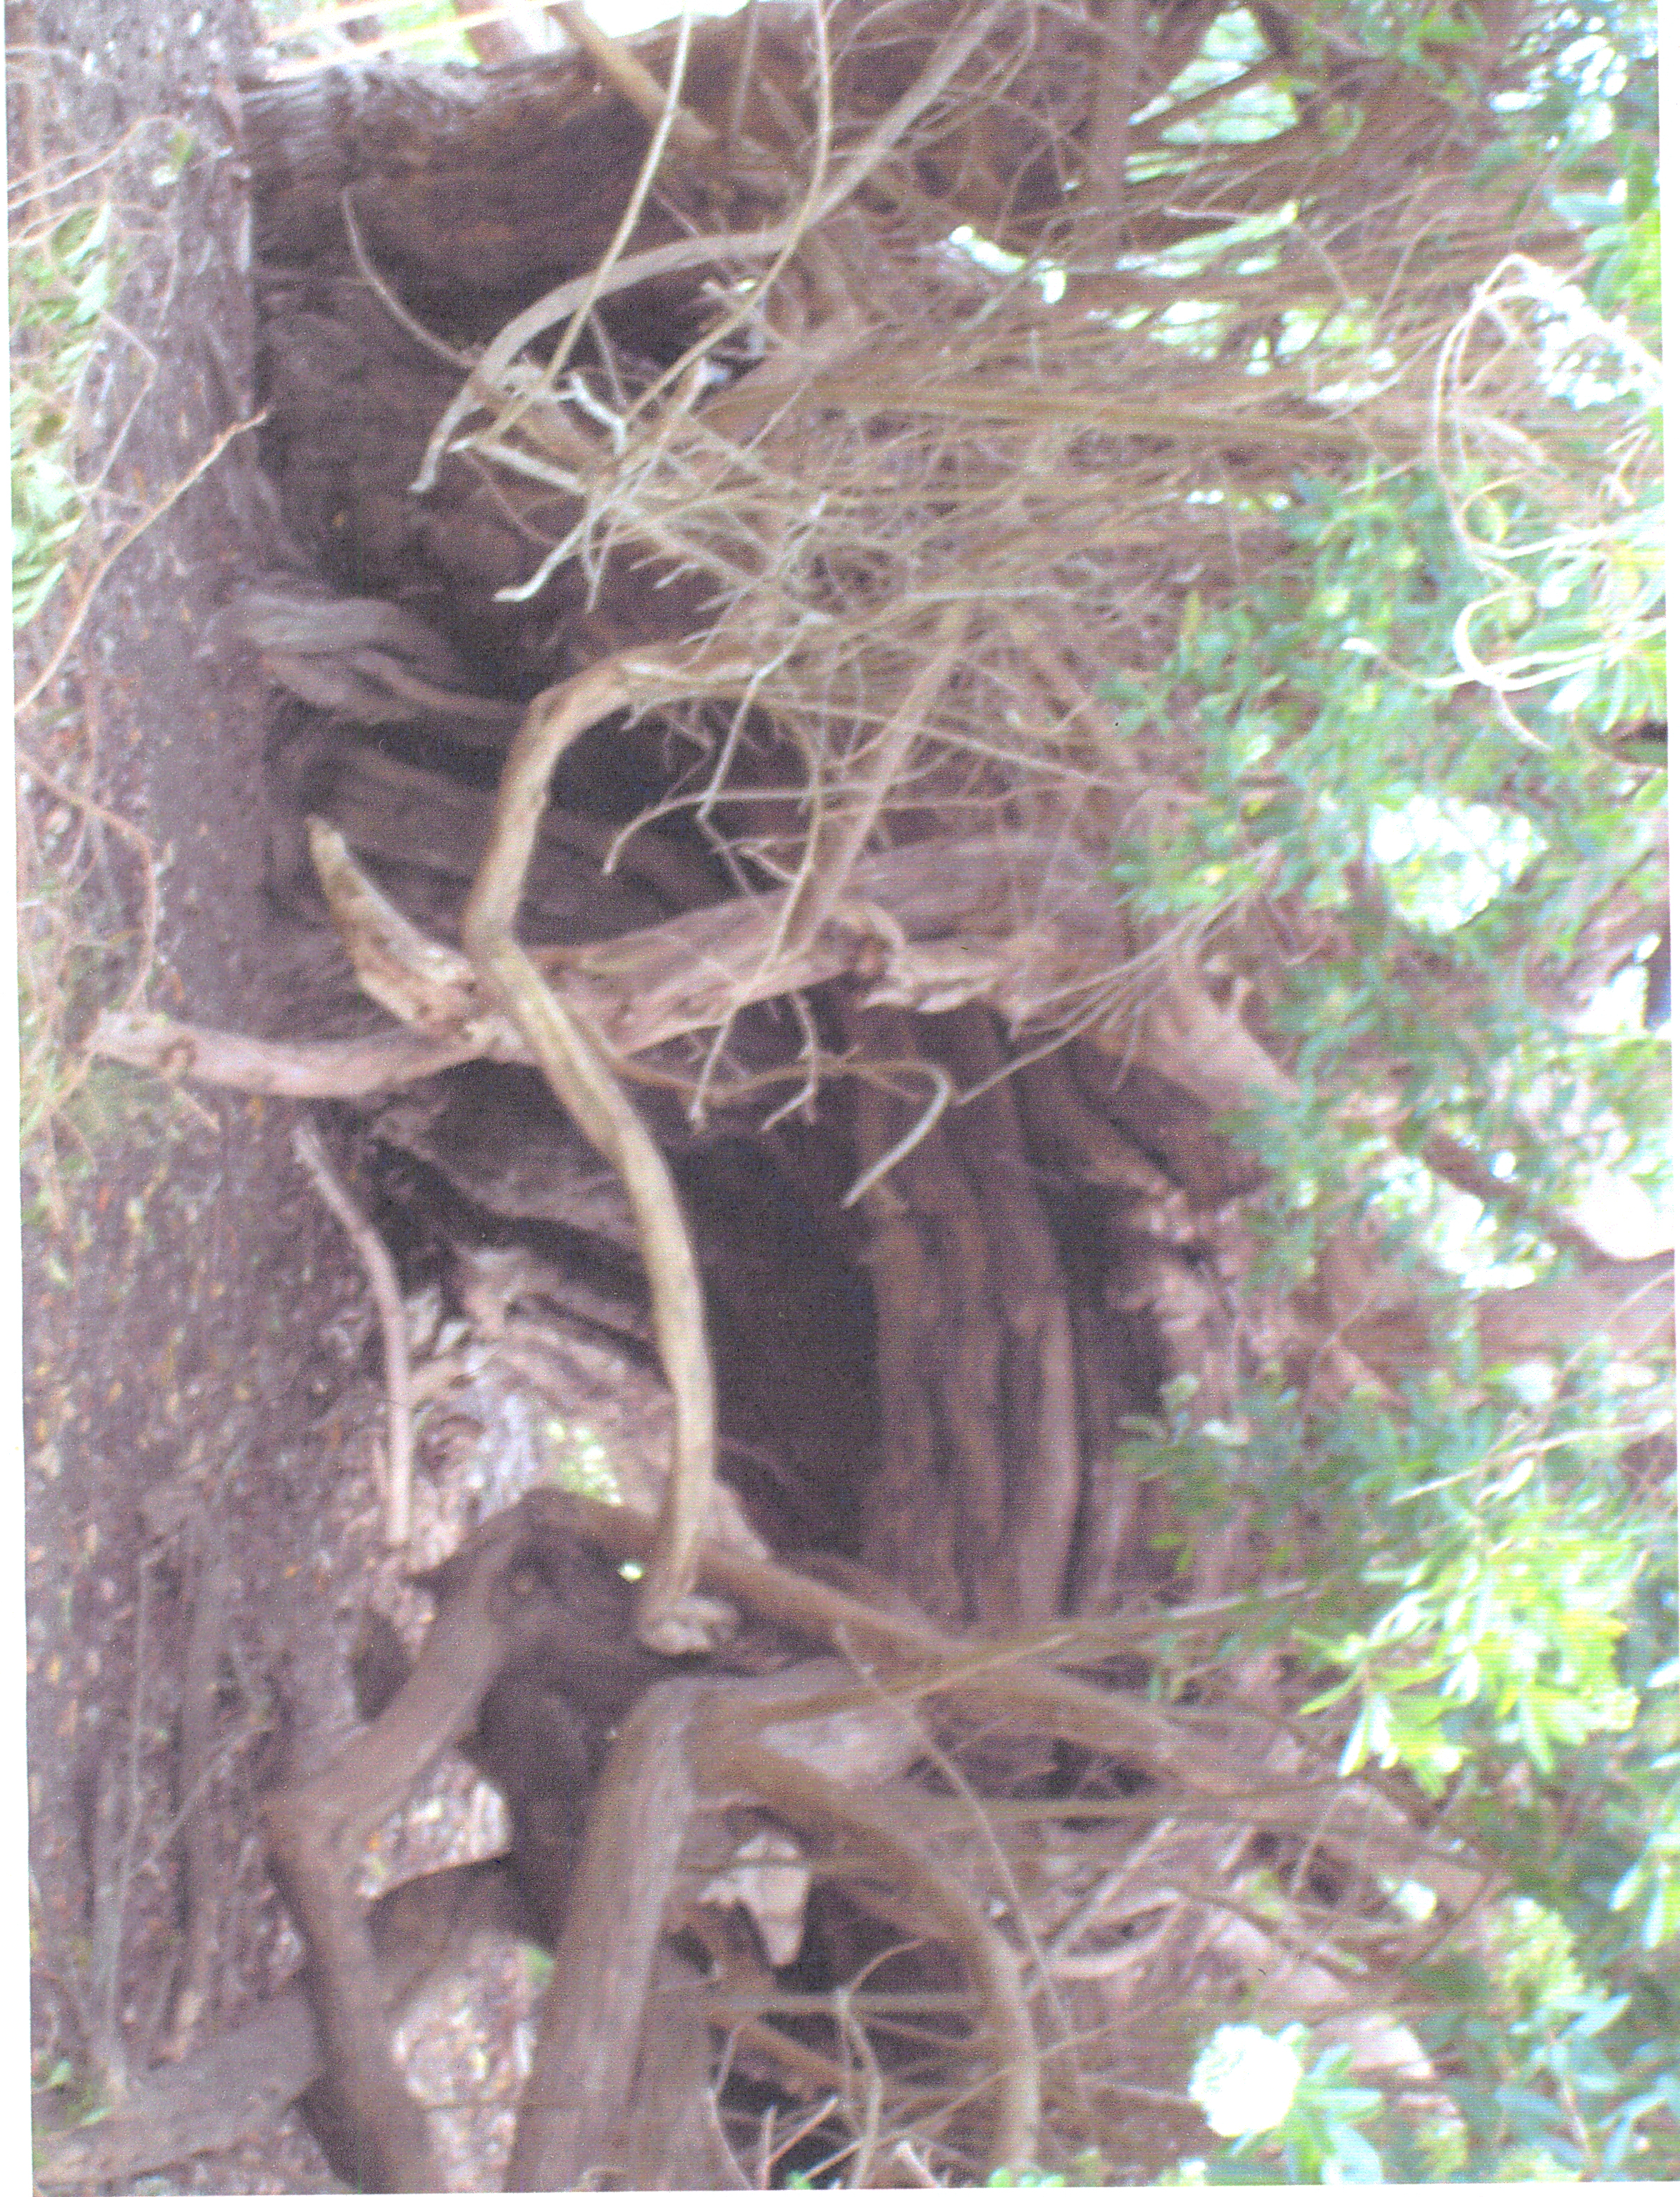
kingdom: Plantae
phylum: Tracheophyta
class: Magnoliopsida
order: Escalloniales
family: Escalloniaceae
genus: Escallonia
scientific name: Escallonia bifida
